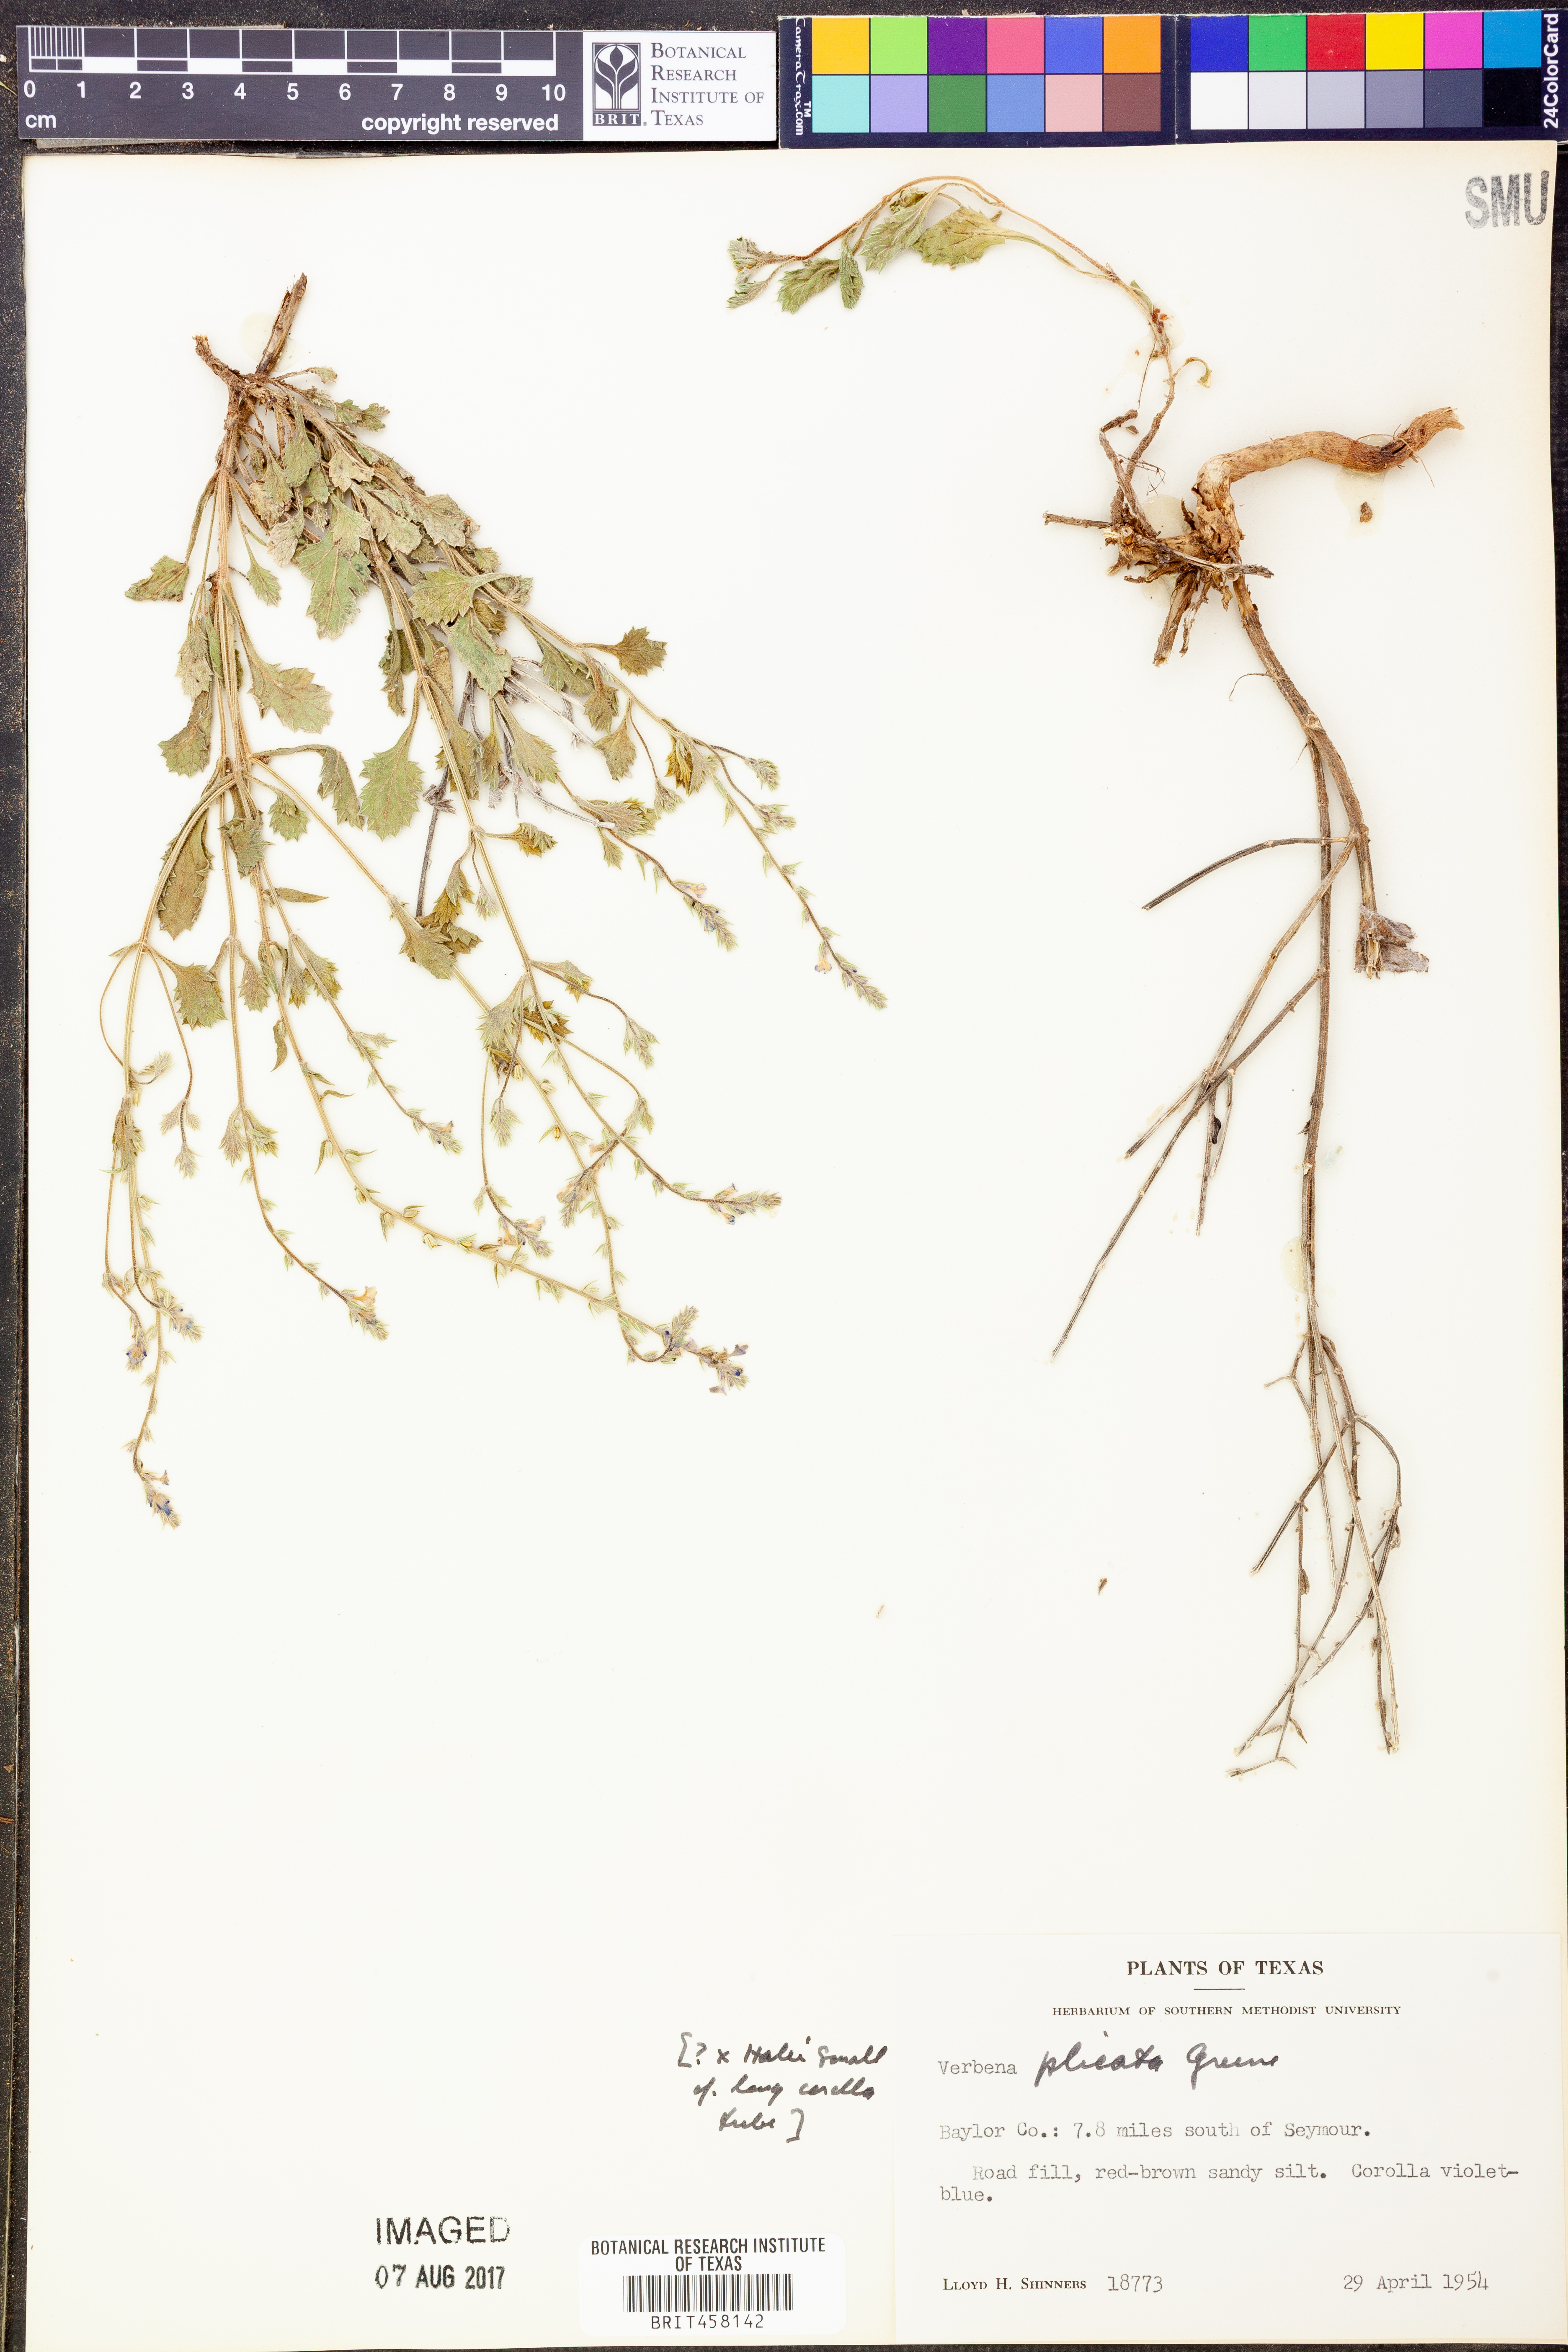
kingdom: Plantae
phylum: Tracheophyta
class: Magnoliopsida
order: Lamiales
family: Verbenaceae
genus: Verbena
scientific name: Verbena plicata
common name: Fan-leaf vervain
